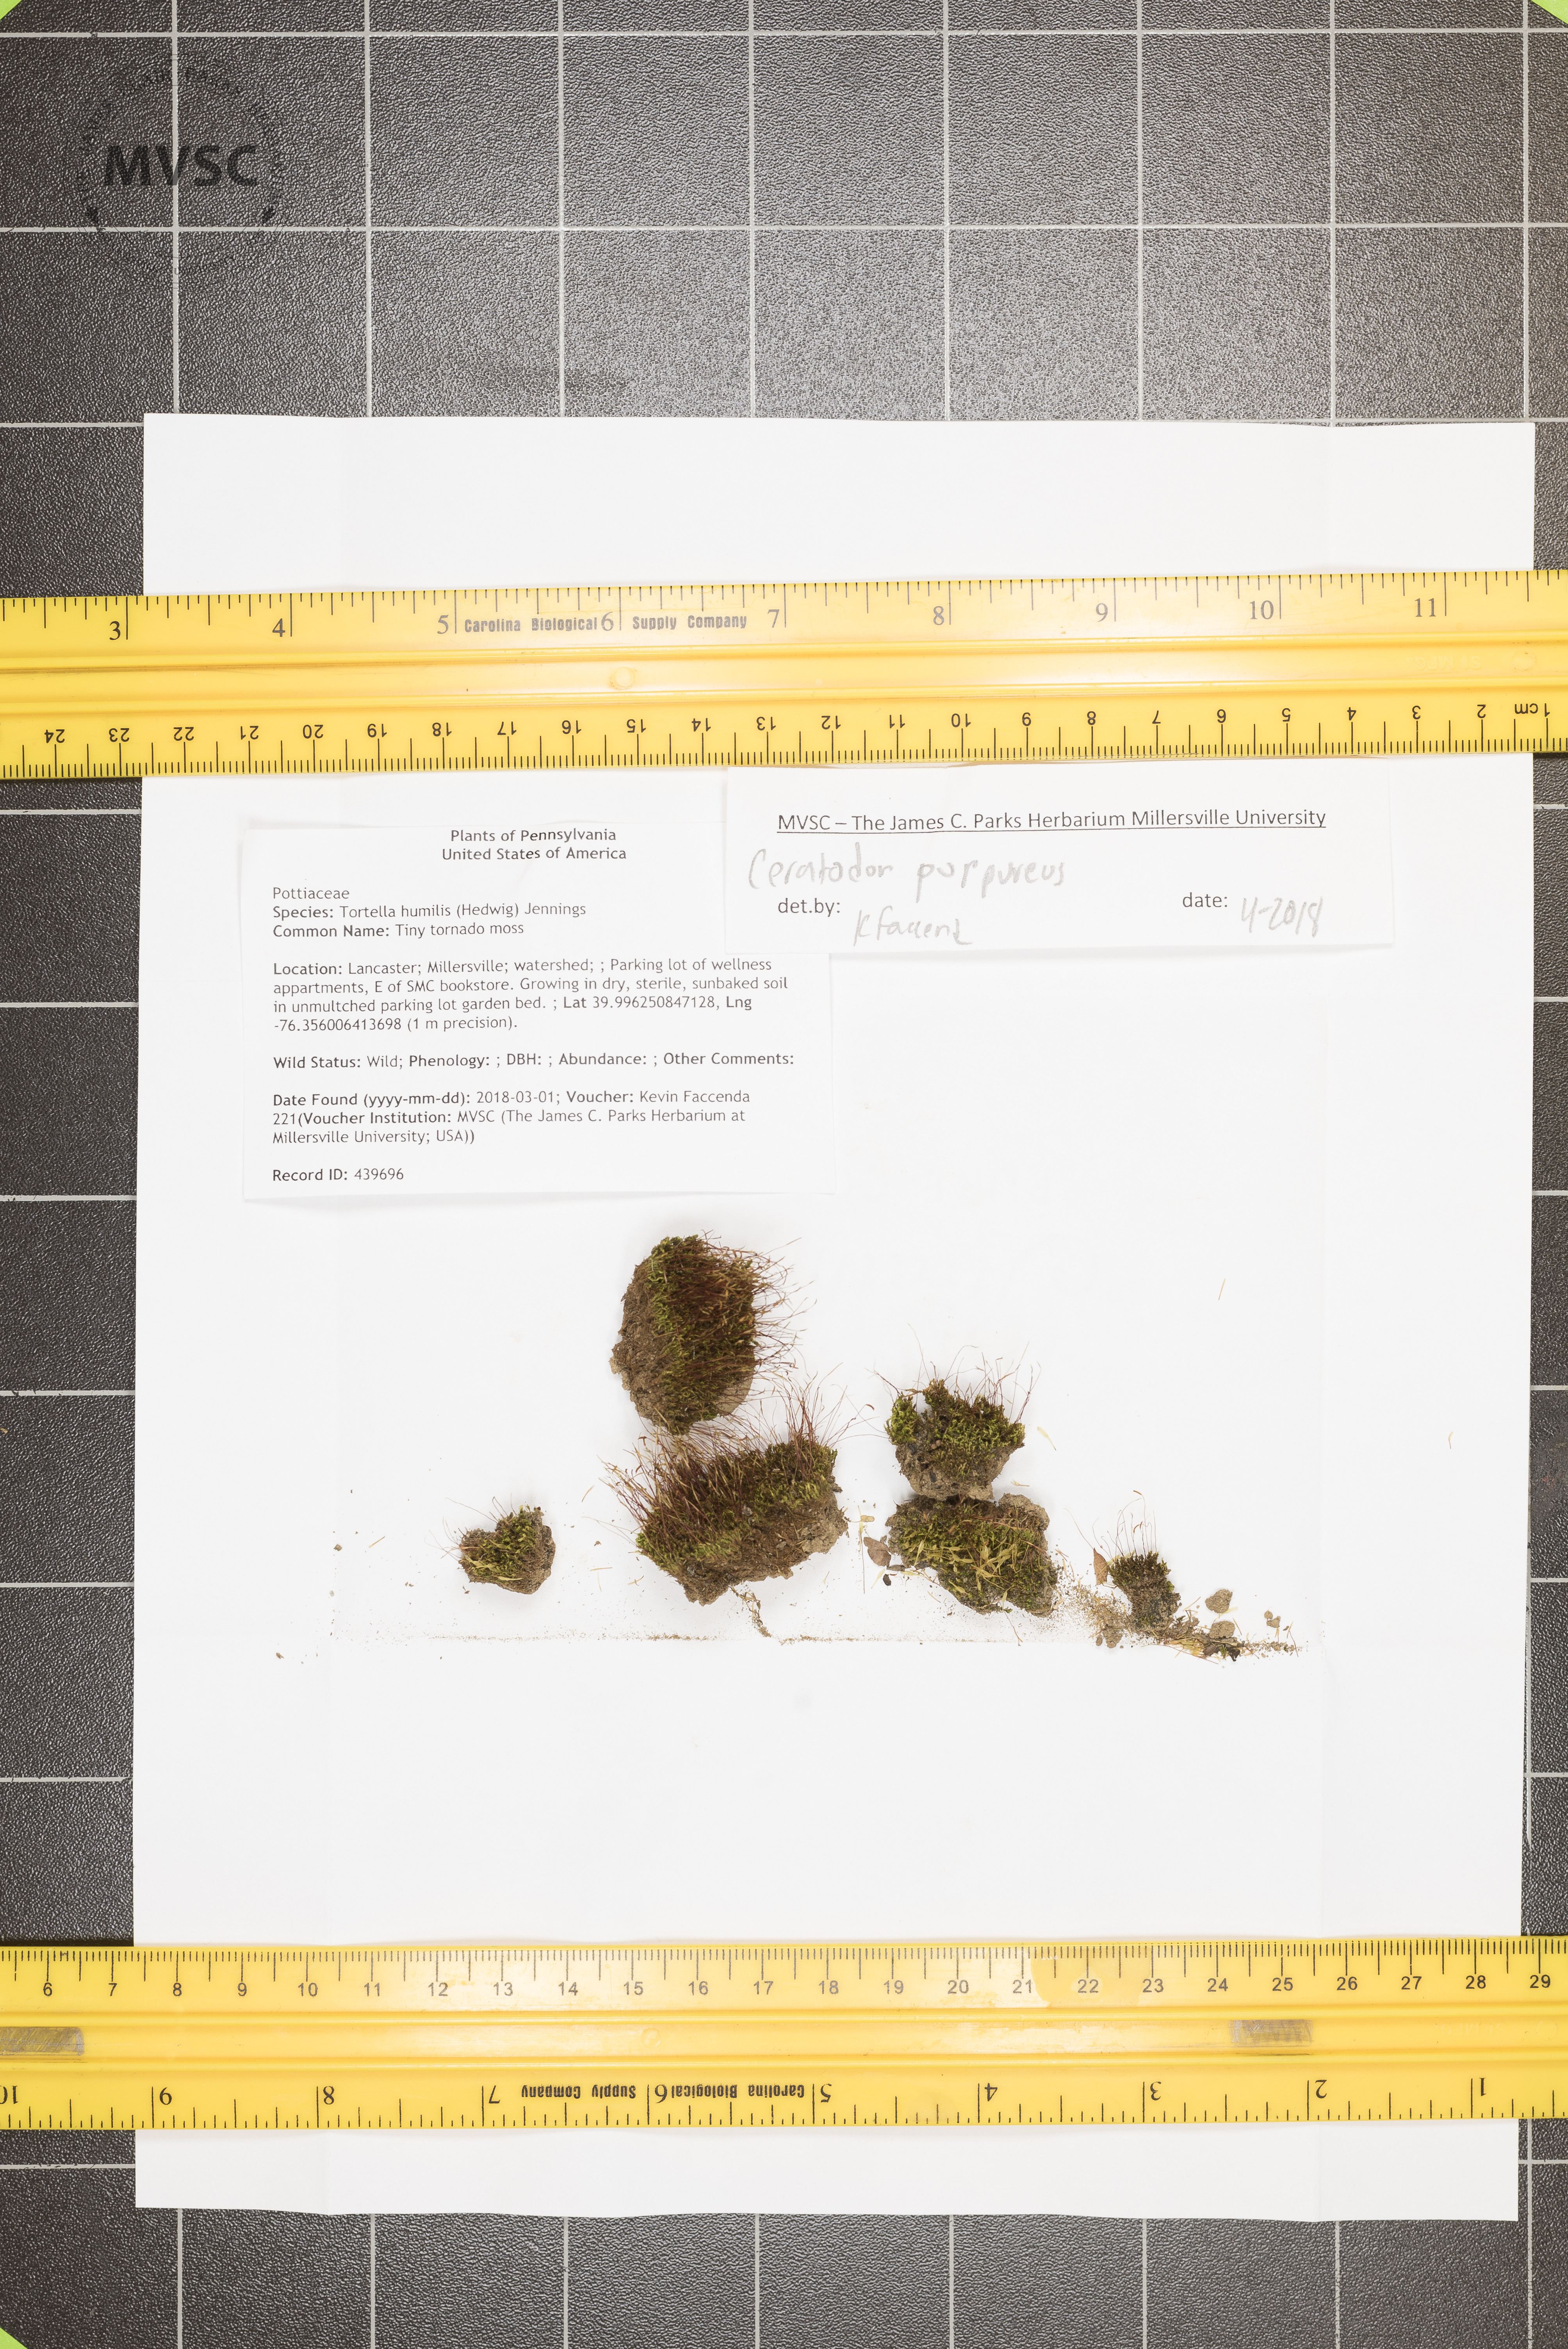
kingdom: Plantae
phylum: Bryophyta
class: Bryopsida
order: Dicranales
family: Ditrichaceae
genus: Ceratodon
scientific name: Ceratodon purpureus
